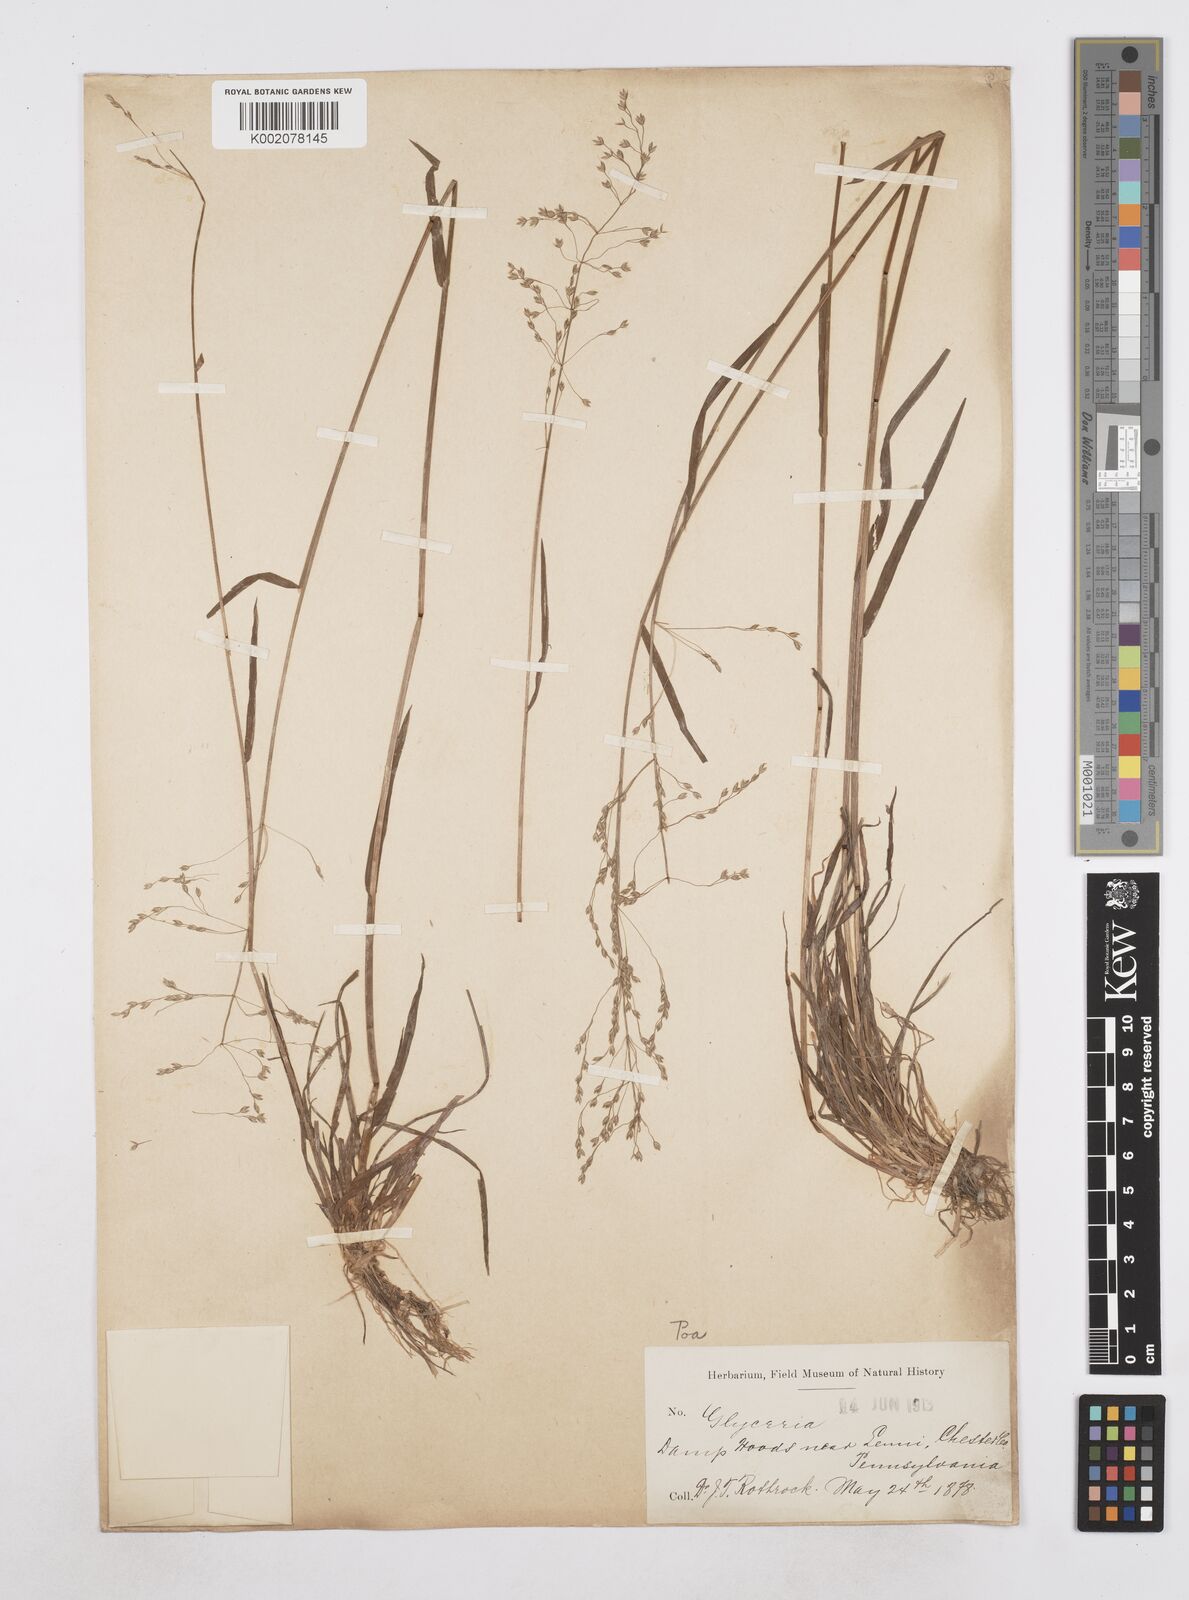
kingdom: Plantae
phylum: Tracheophyta
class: Liliopsida
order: Poales
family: Poaceae
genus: Poa
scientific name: Poa
